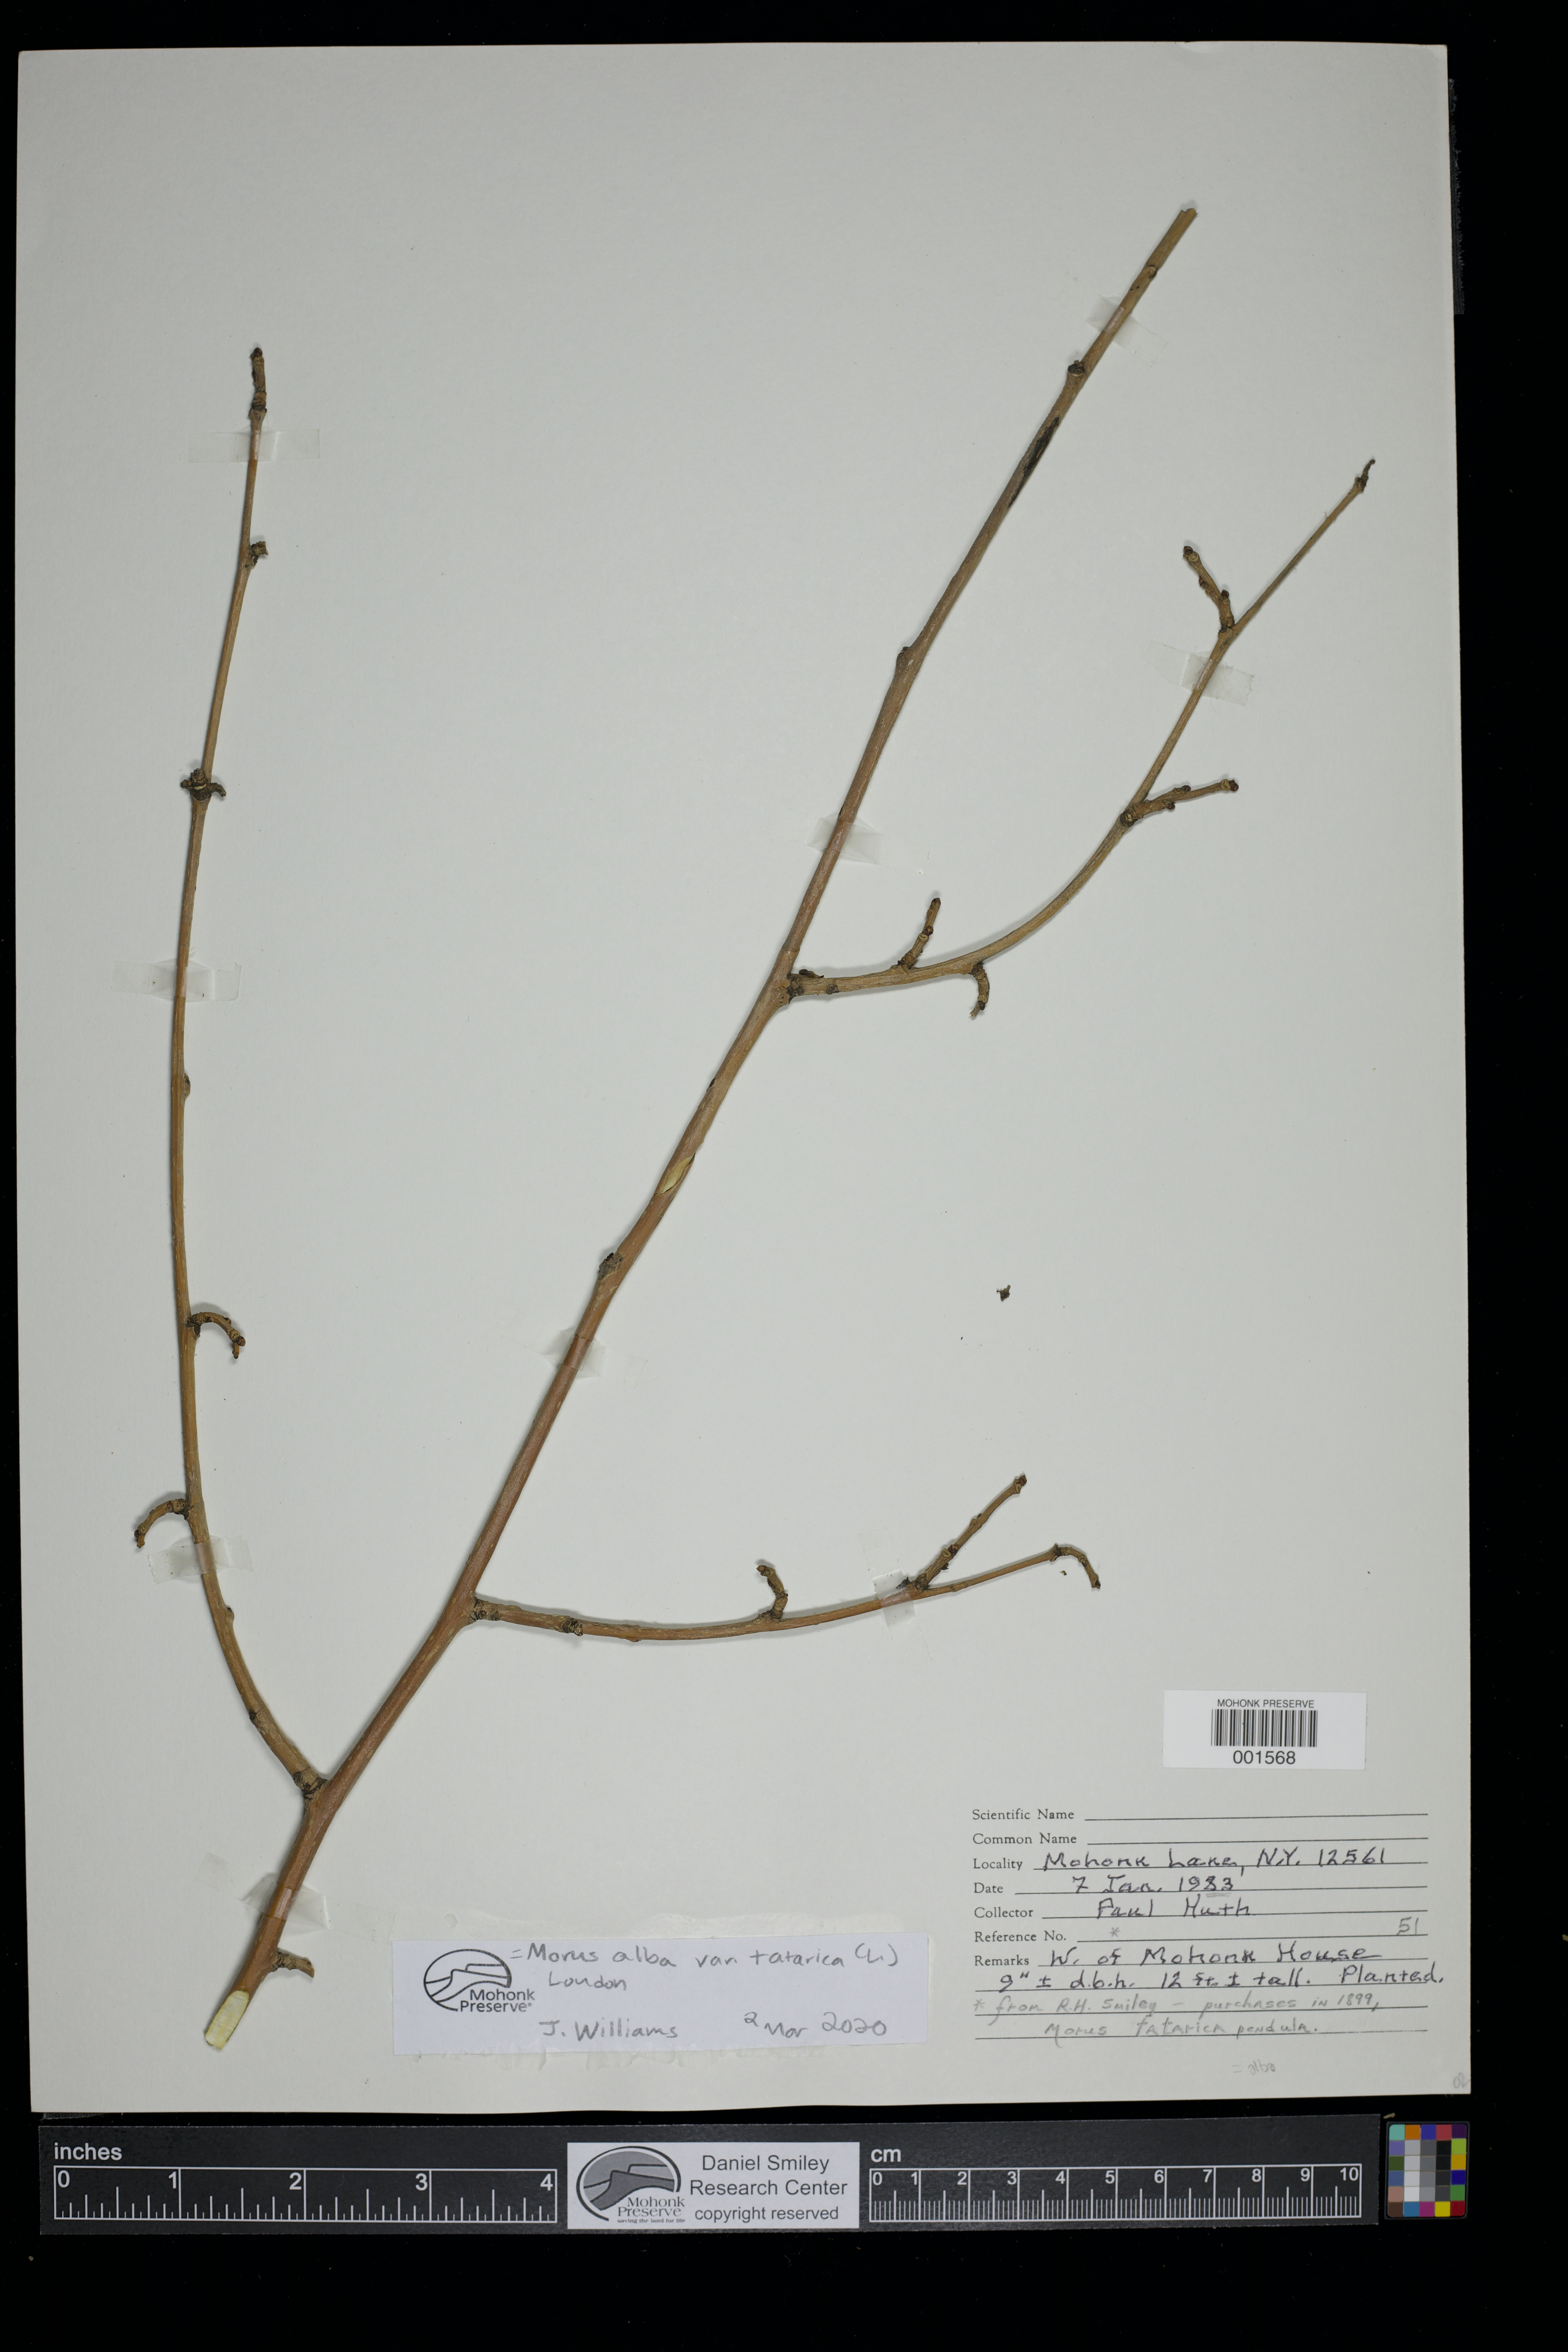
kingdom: Plantae
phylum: Tracheophyta
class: Magnoliopsida
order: Rosales
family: Moraceae
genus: Morus
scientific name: Morus alba
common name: White mulberry
